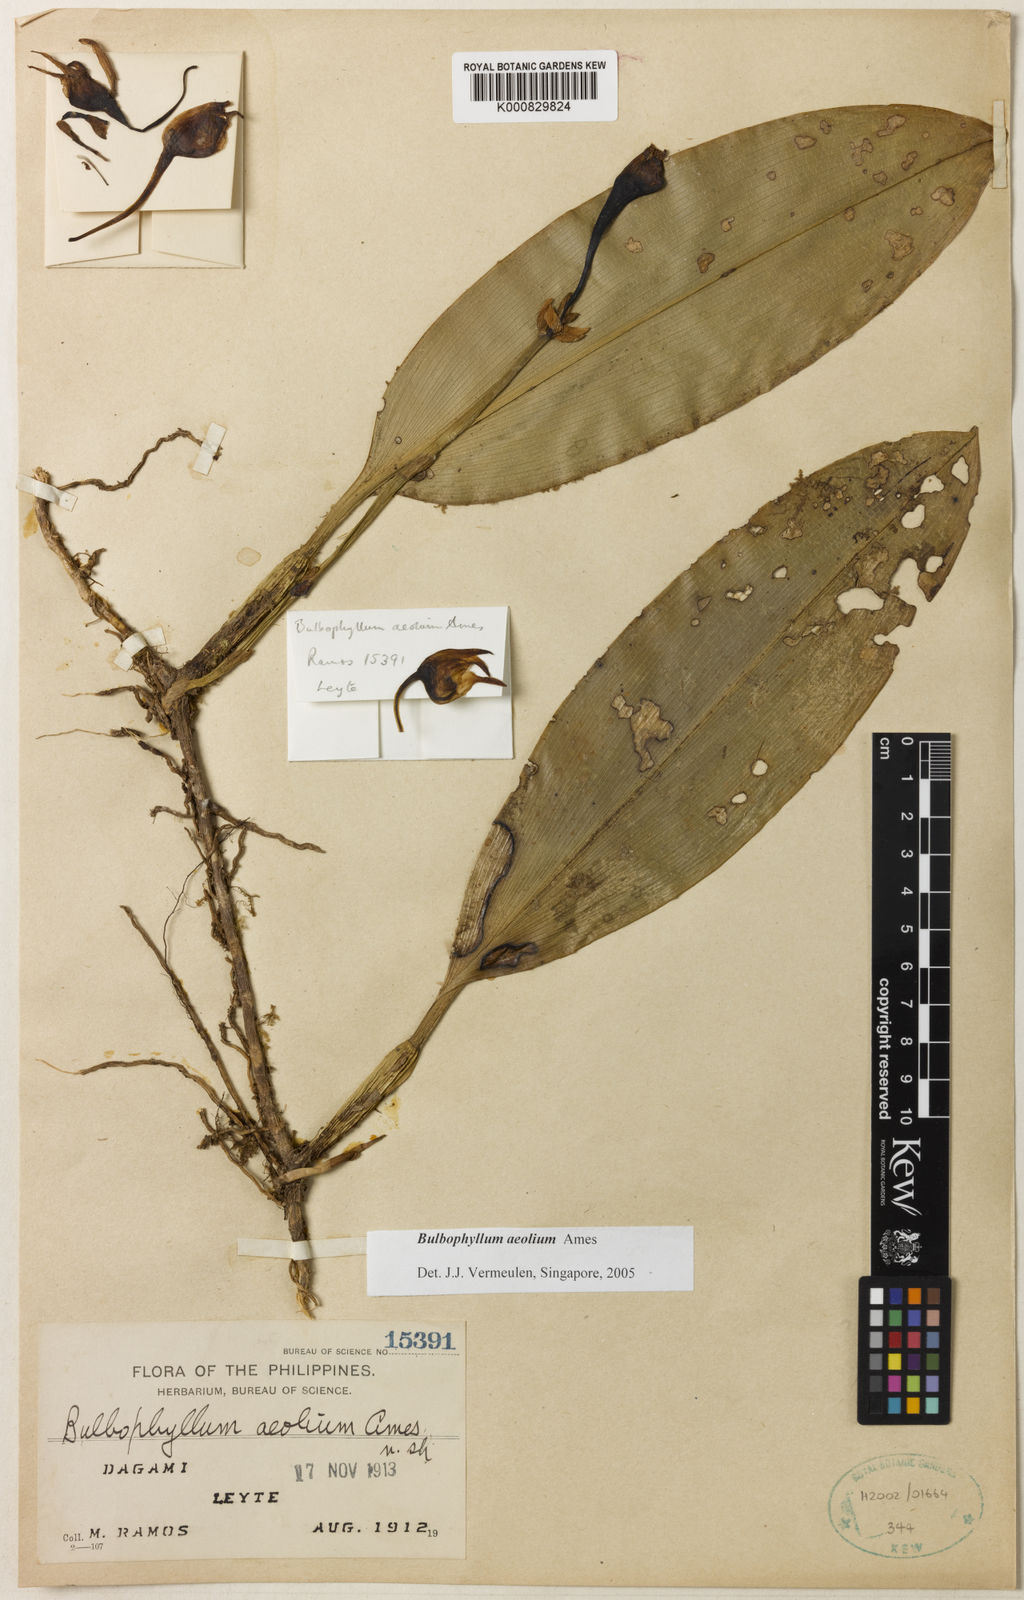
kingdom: Plantae
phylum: Tracheophyta
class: Liliopsida
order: Asparagales
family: Orchidaceae
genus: Bulbophyllum
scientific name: Bulbophyllum aeolium
